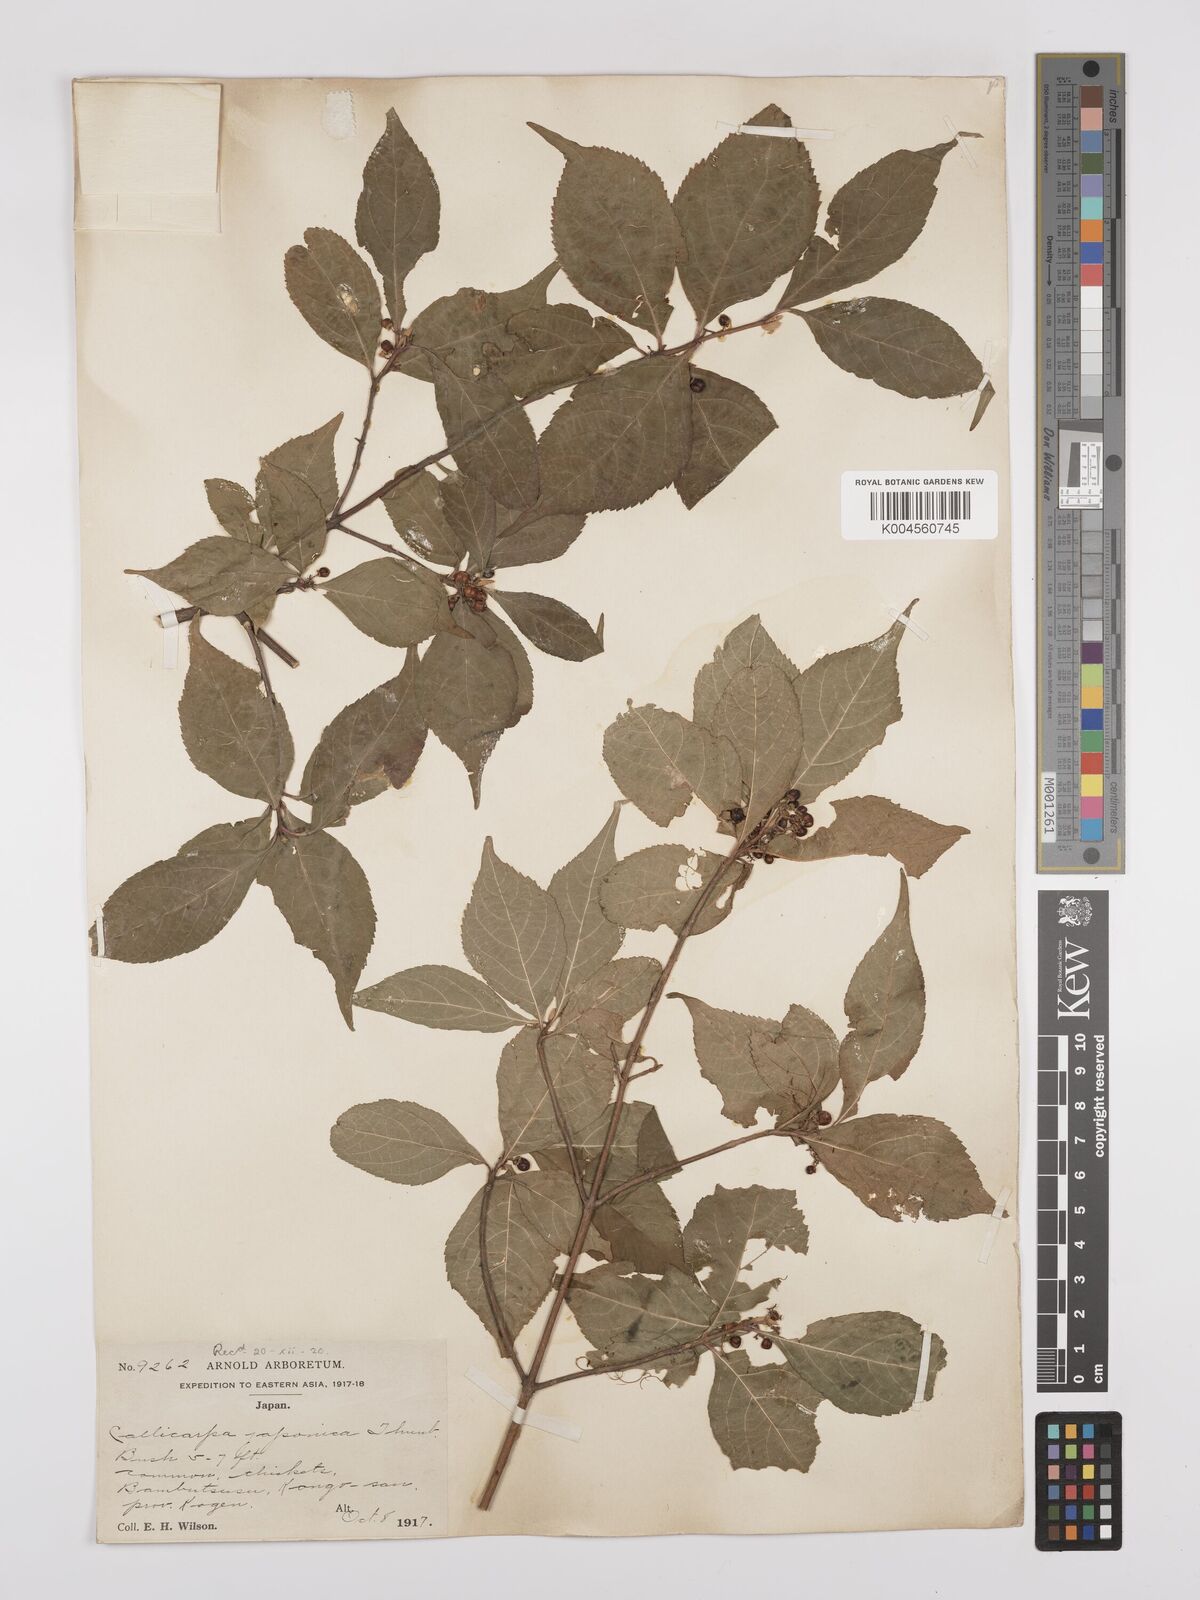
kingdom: Plantae
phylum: Tracheophyta
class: Magnoliopsida
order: Lamiales
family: Lamiaceae
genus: Callicarpa
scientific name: Callicarpa japonica
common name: Japanese beauty-berry
